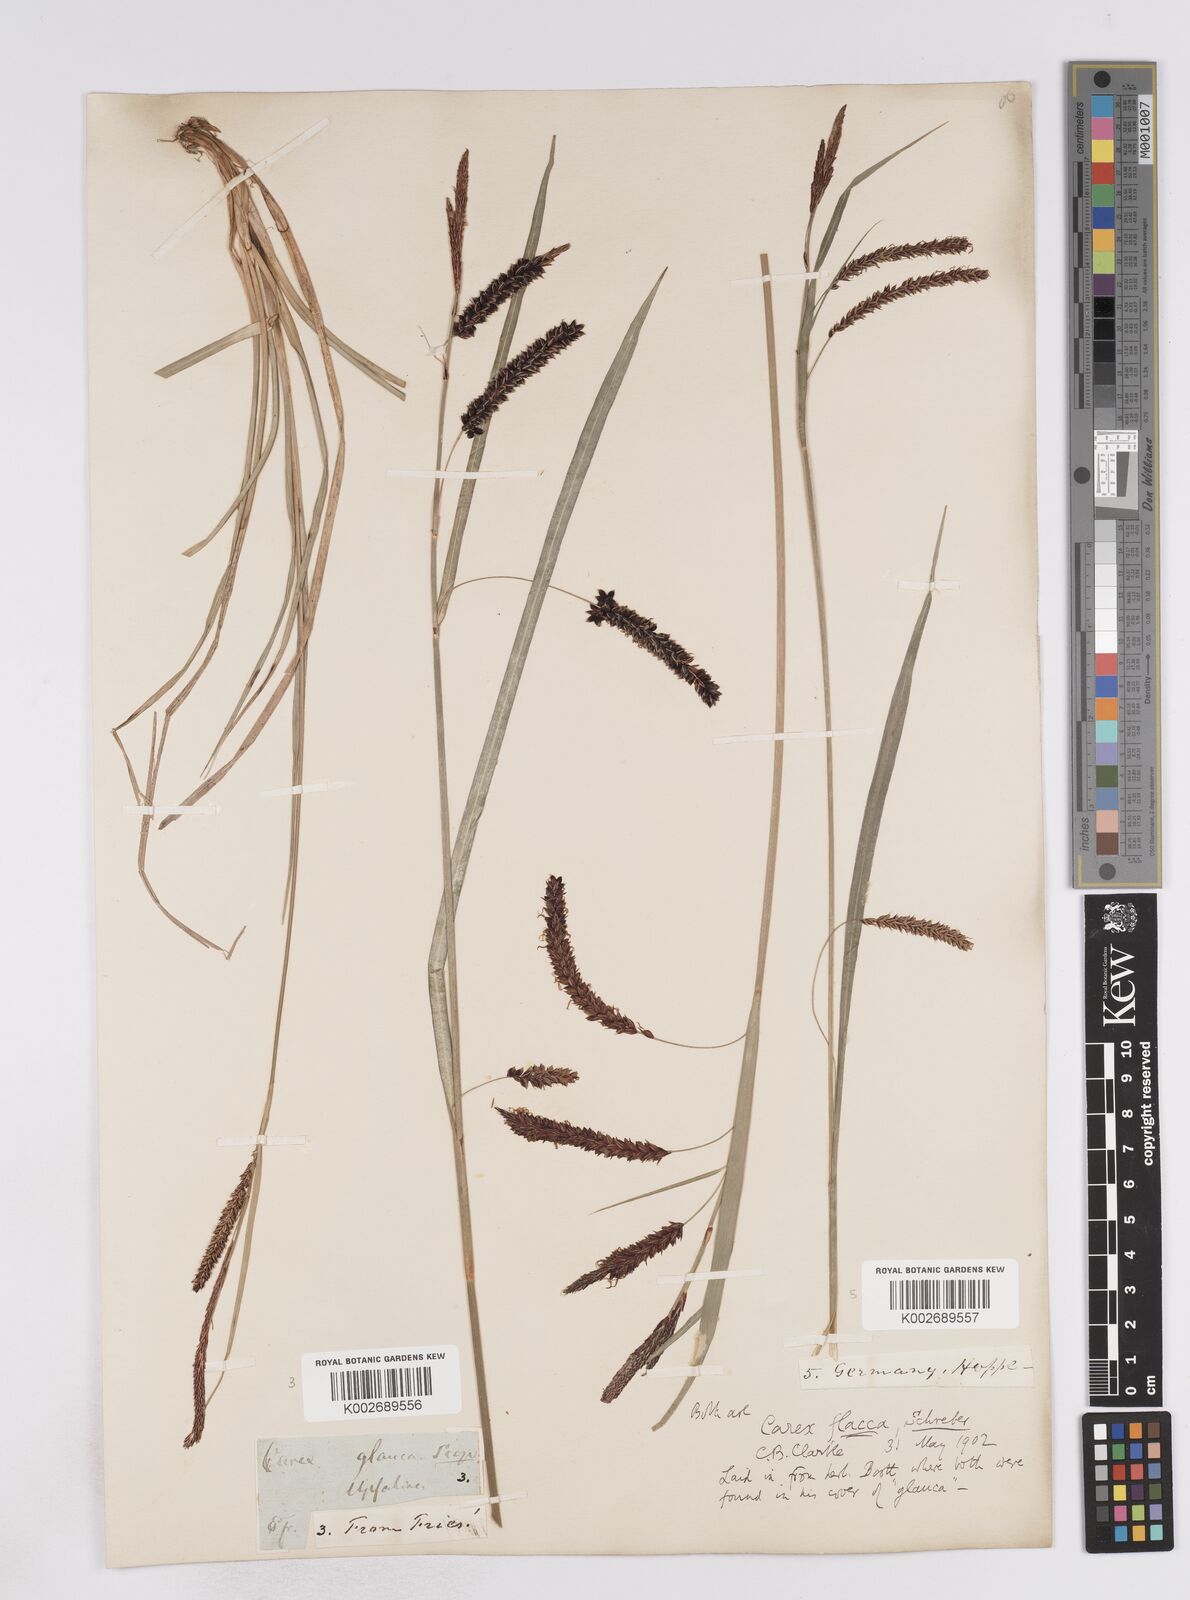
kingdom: Plantae
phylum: Tracheophyta
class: Liliopsida
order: Poales
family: Cyperaceae
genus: Carex
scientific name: Carex flacca
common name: Glaucous sedge
